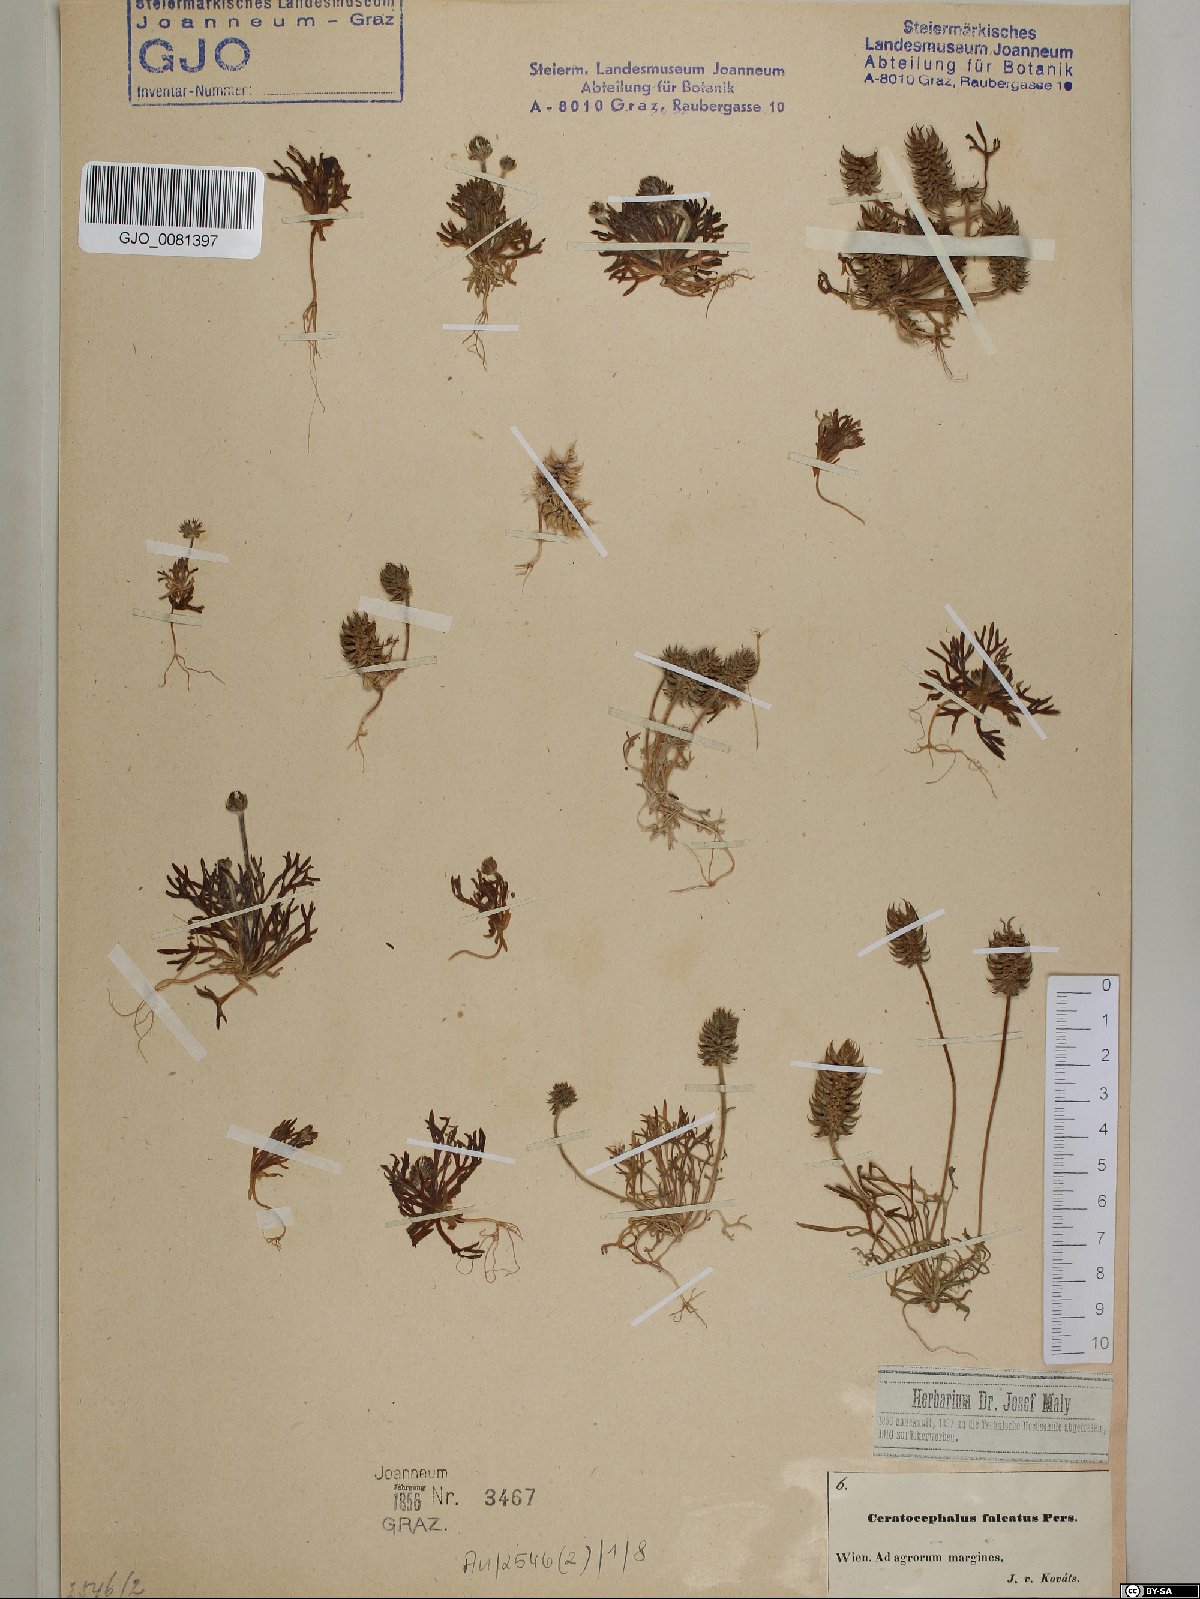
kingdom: Plantae
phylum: Tracheophyta
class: Magnoliopsida
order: Ranunculales
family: Ranunculaceae
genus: Ceratocephala
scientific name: Ceratocephala falcata
